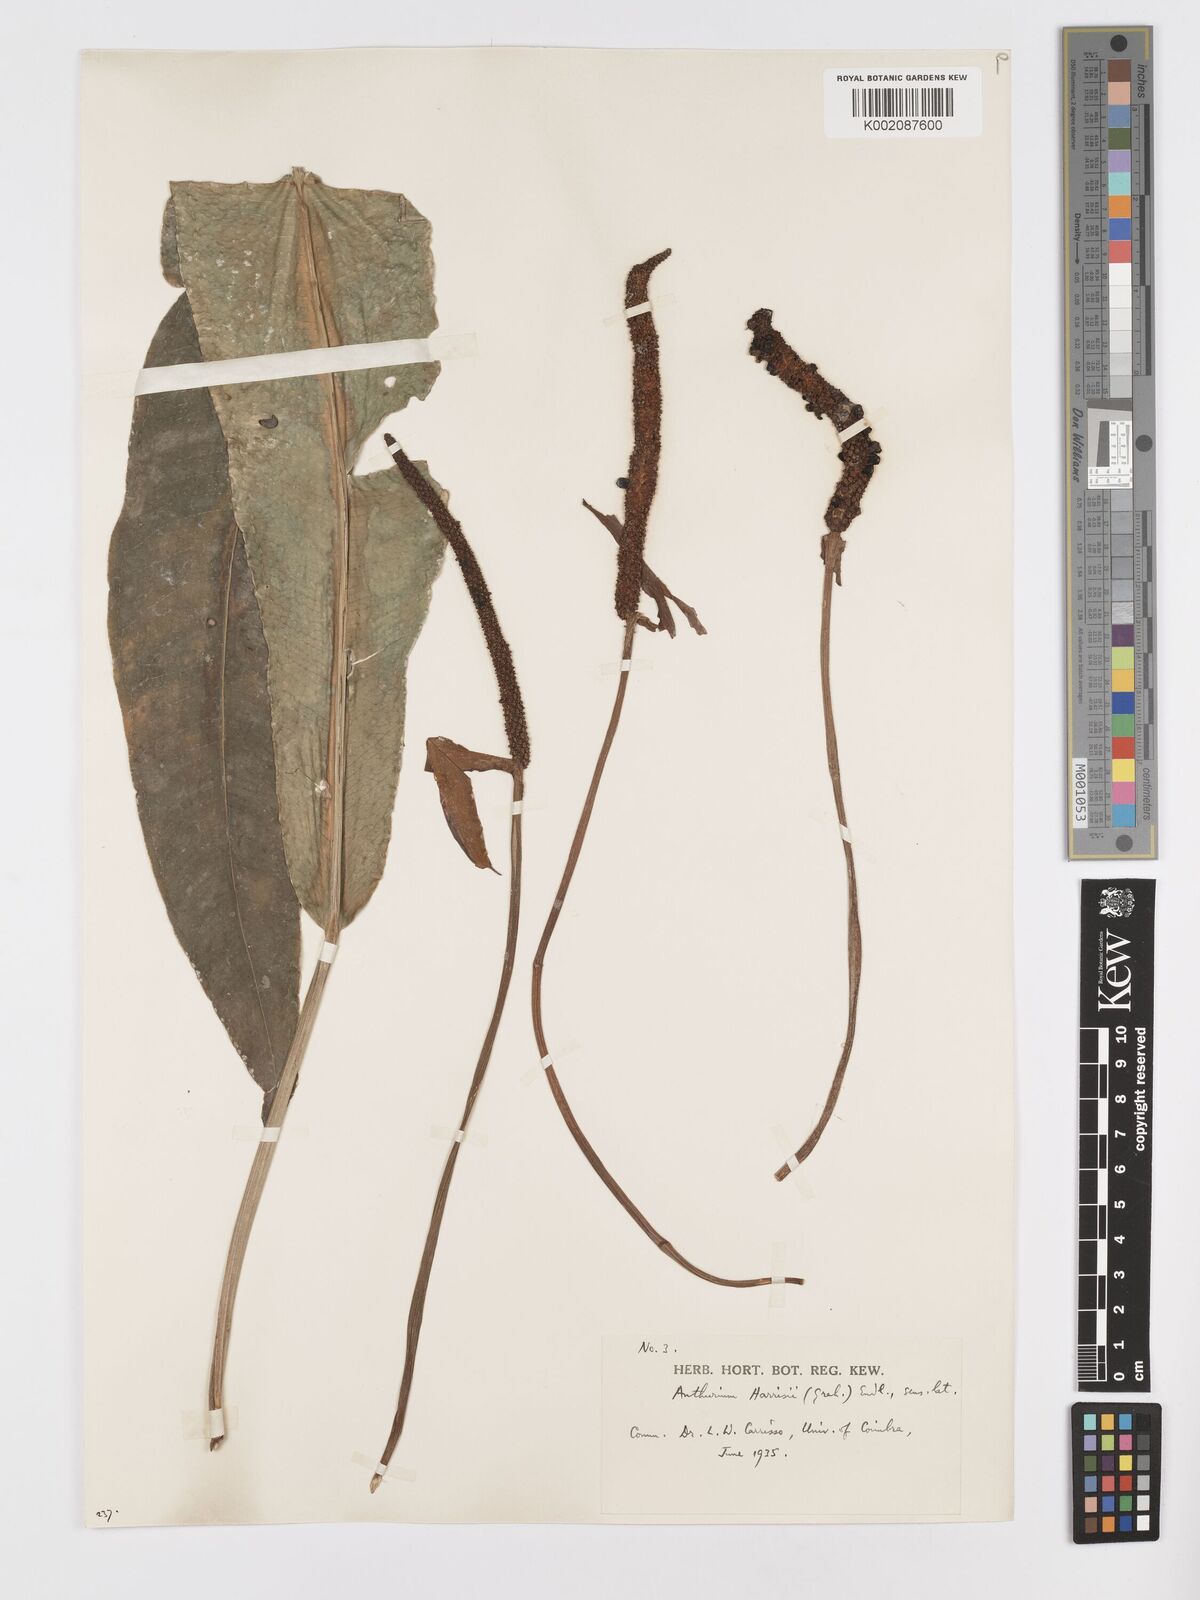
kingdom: Plantae
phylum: Tracheophyta
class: Liliopsida
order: Alismatales
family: Araceae
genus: Anthurium
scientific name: Anthurium harrisii
